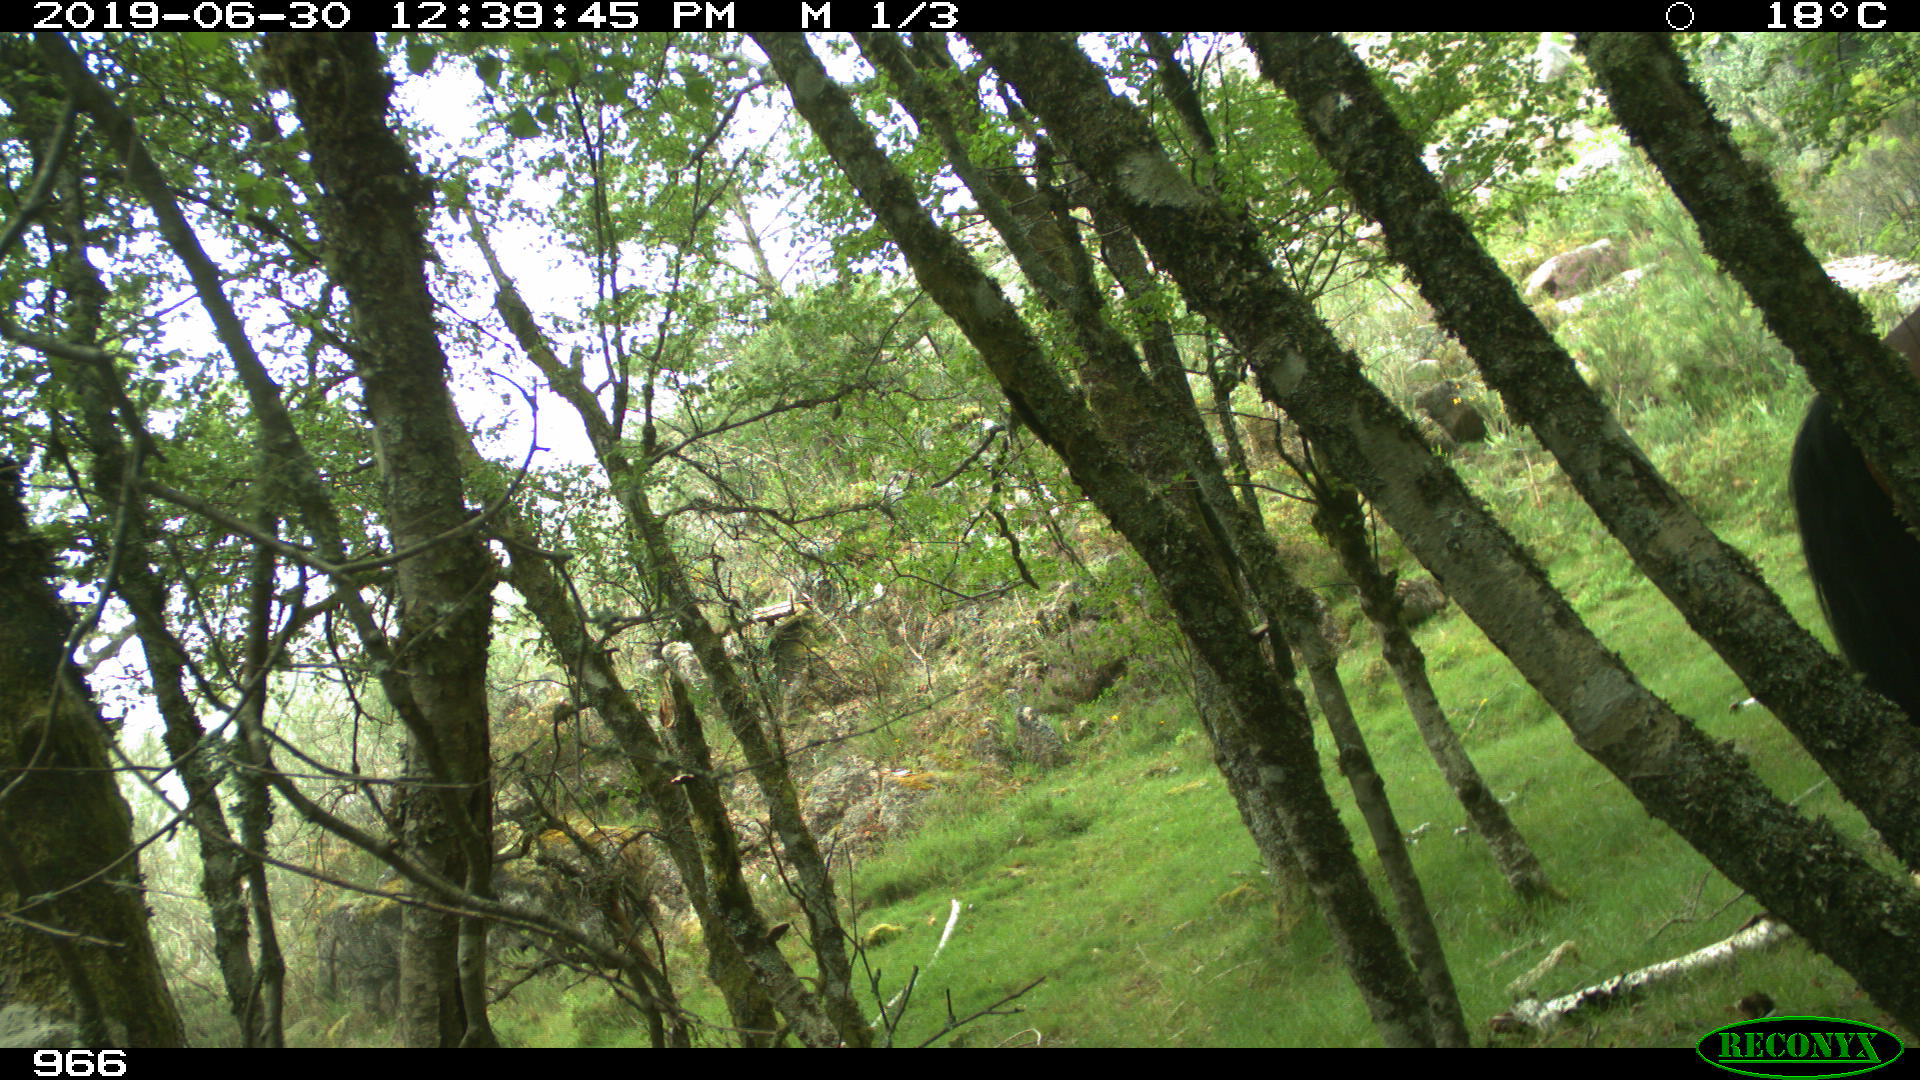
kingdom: Animalia
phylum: Chordata
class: Mammalia
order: Perissodactyla
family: Equidae
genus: Equus
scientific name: Equus caballus
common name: Horse
